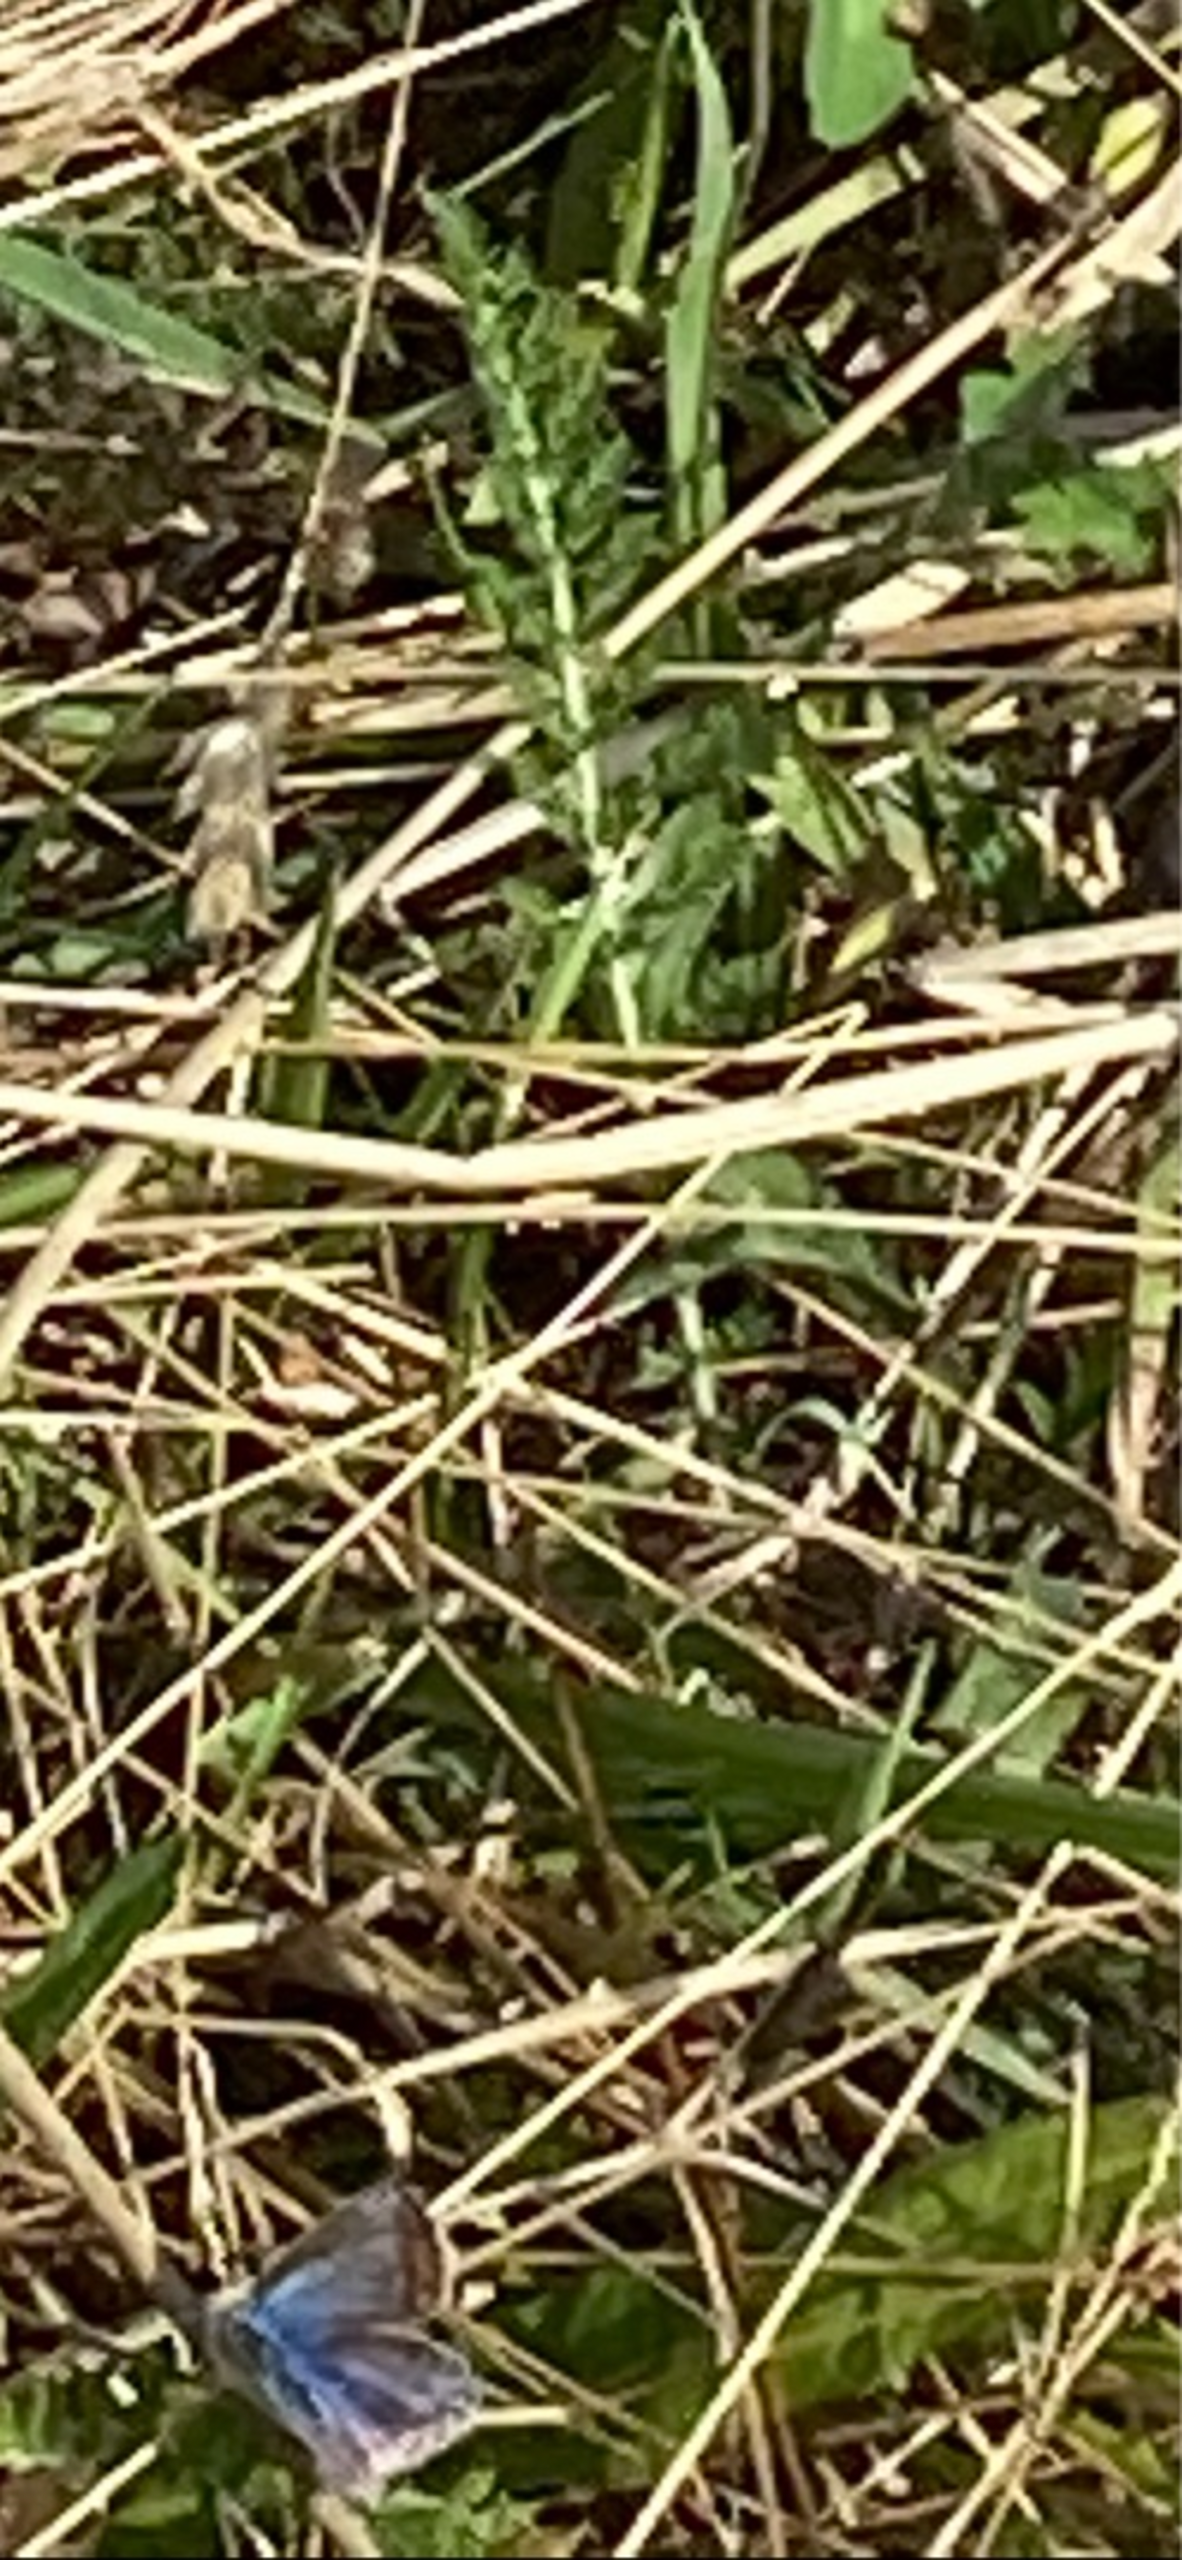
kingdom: Animalia
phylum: Arthropoda
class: Insecta
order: Lepidoptera
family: Lycaenidae
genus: Polyommatus
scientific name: Polyommatus icarus
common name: Almindelig blåfugl
